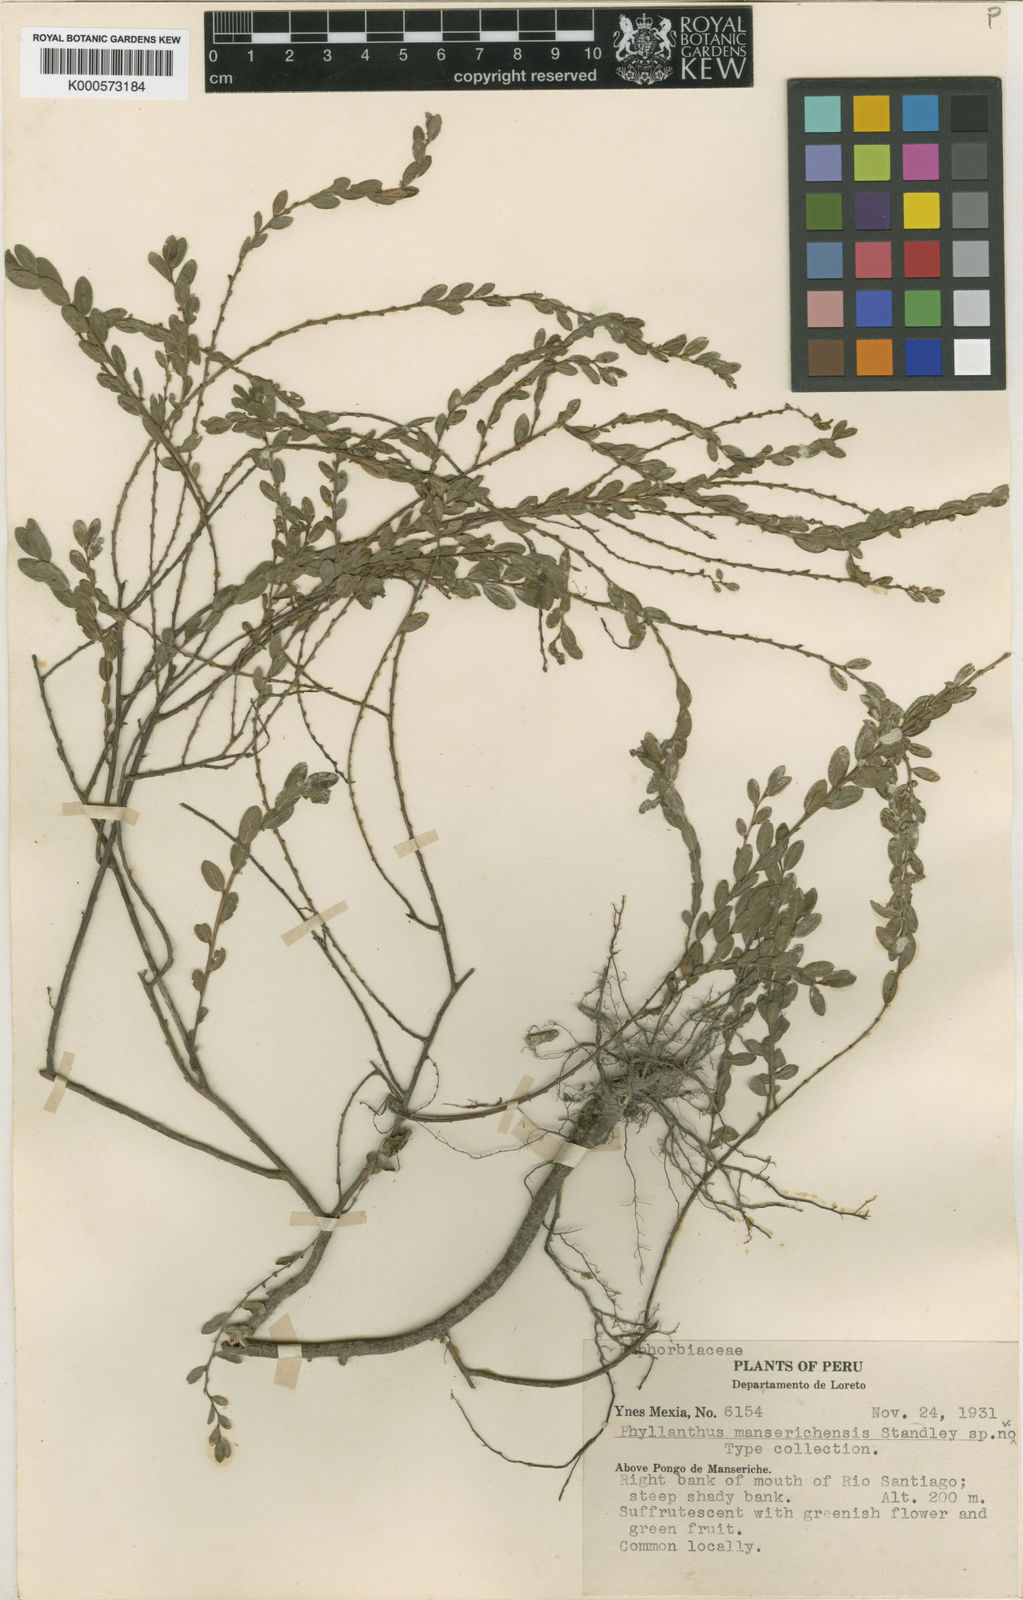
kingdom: Plantae
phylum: Tracheophyta
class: Magnoliopsida
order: Malpighiales
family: Phyllanthaceae
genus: Phyllanthus
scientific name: Phyllanthus
